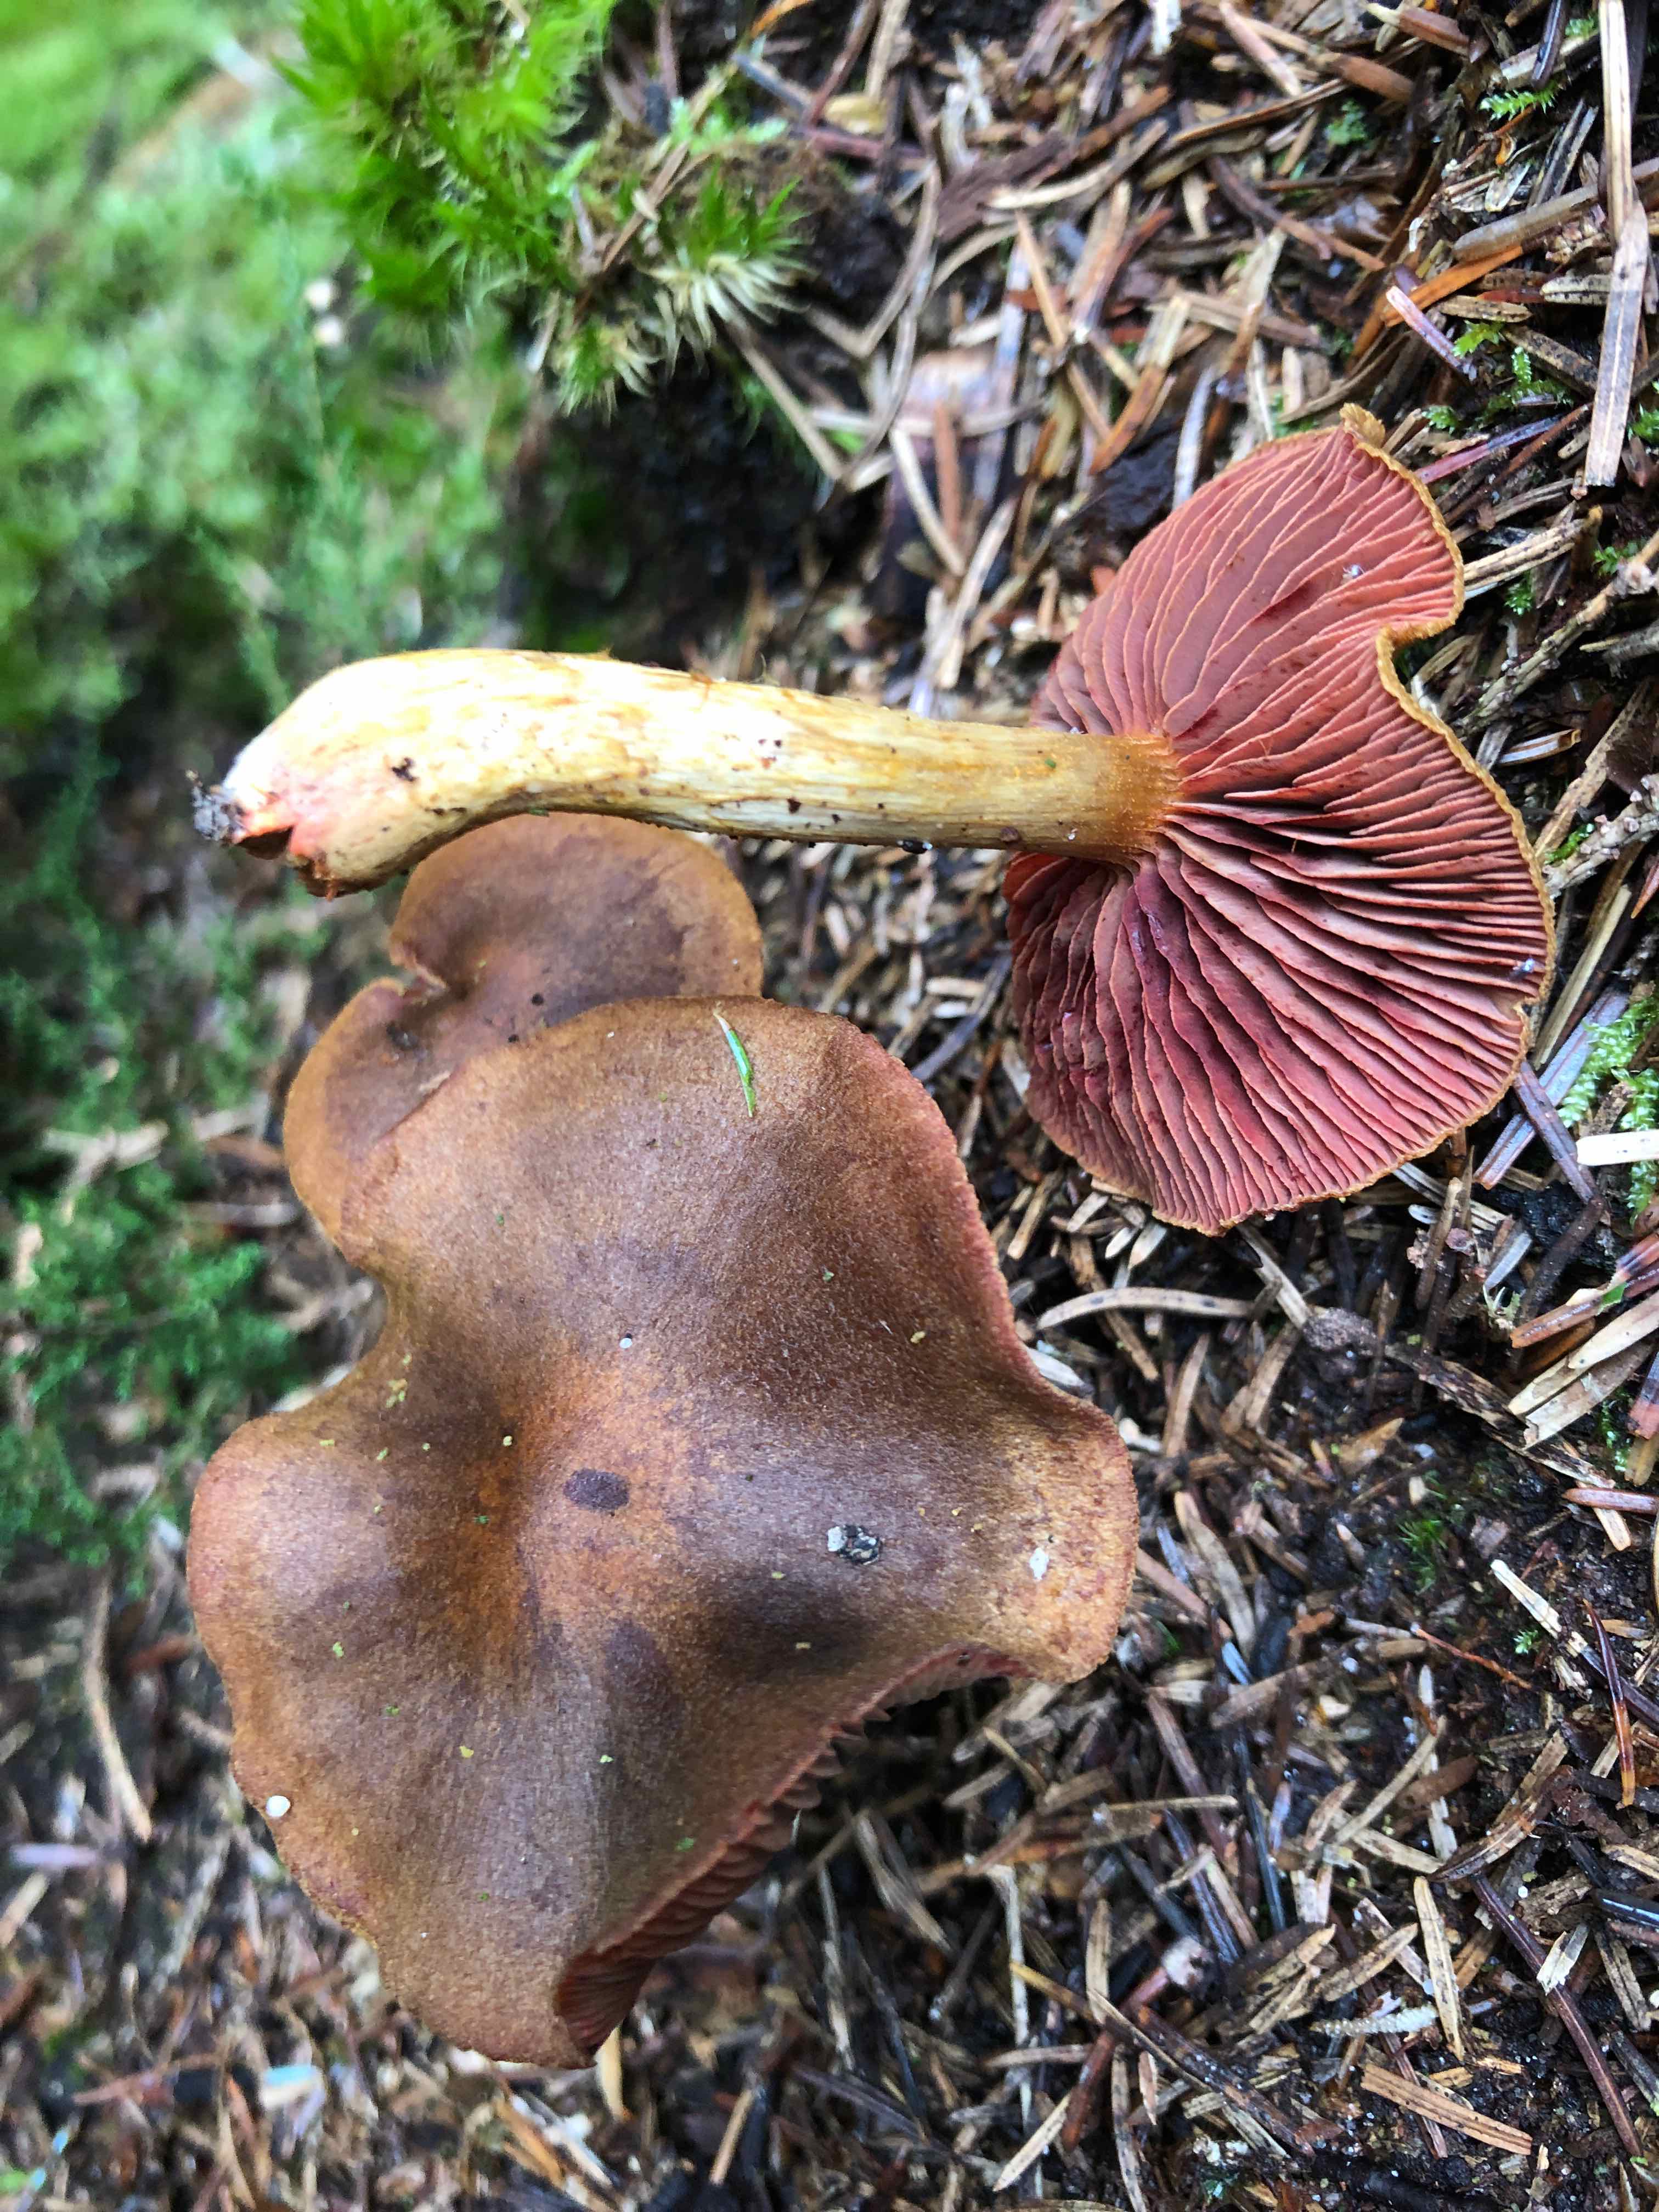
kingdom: Fungi
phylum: Basidiomycota
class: Agaricomycetes
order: Agaricales
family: Cortinariaceae
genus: Cortinarius
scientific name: Cortinarius
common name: cinnoberbladet slørhat
